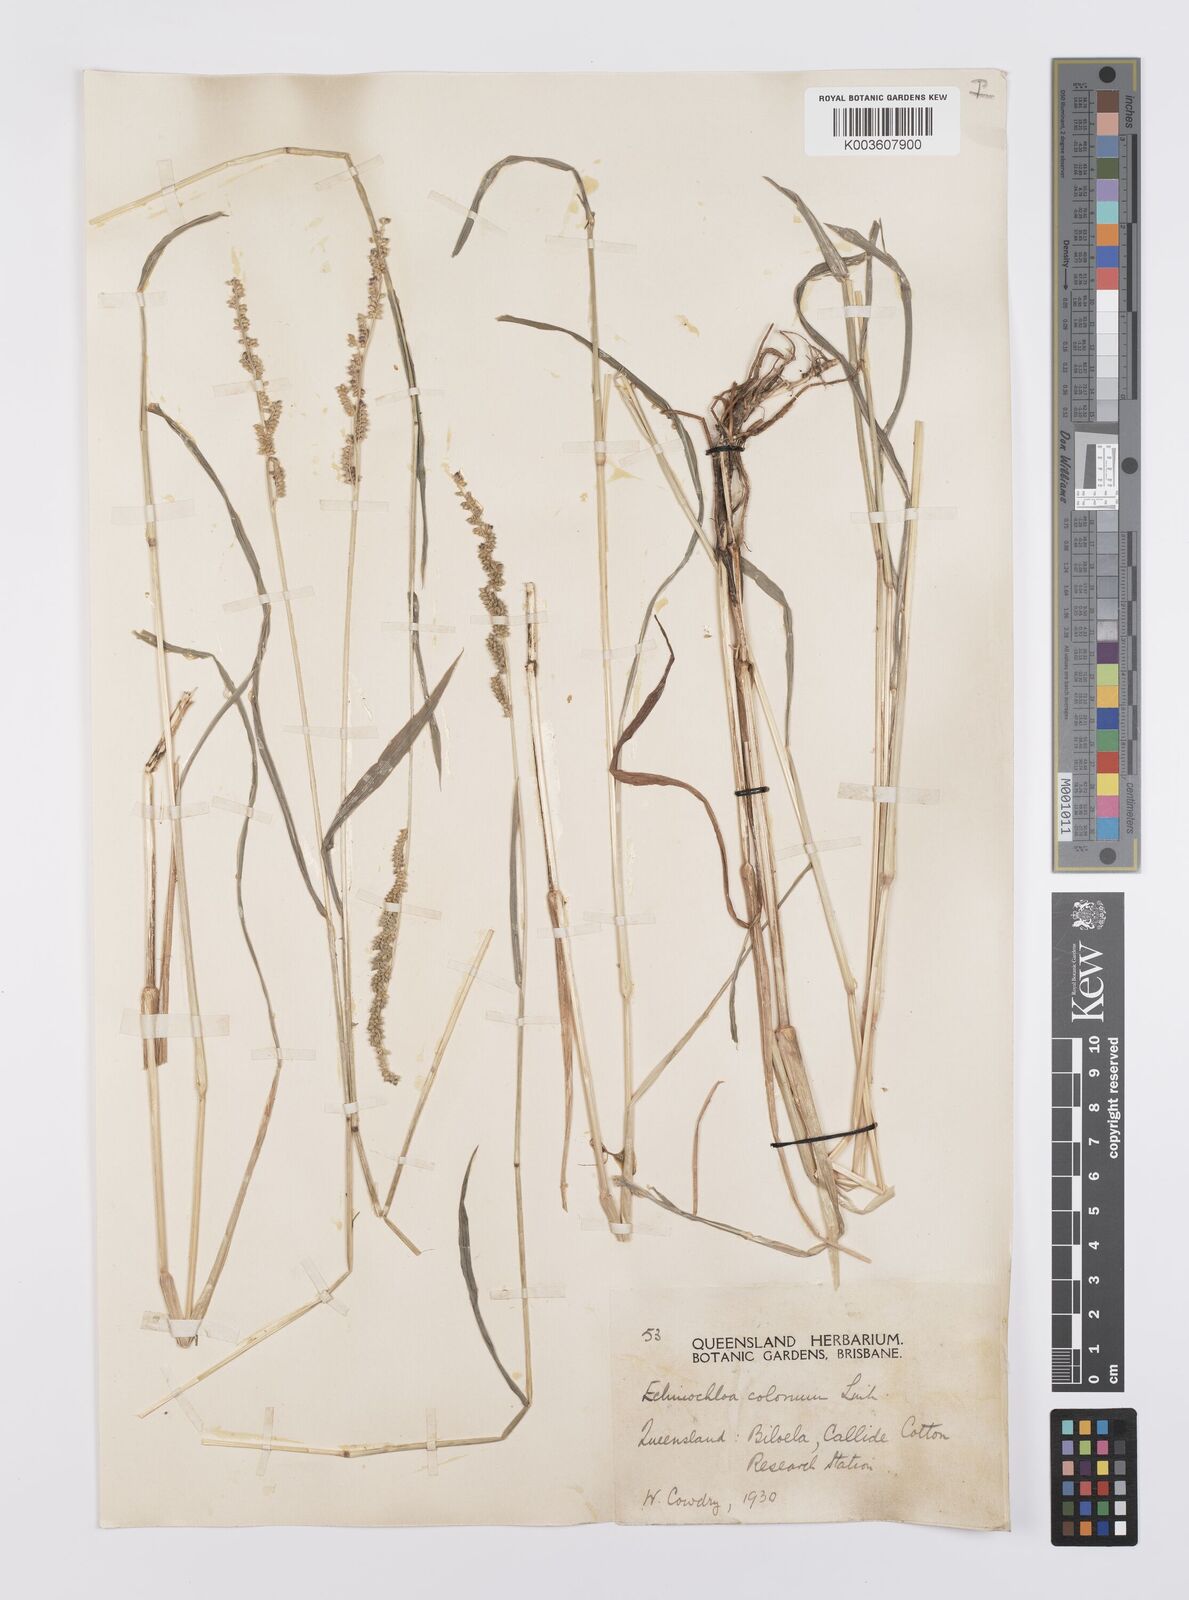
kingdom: Plantae
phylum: Tracheophyta
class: Liliopsida
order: Poales
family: Poaceae
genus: Echinochloa
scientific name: Echinochloa colonum
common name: Jungle rice
